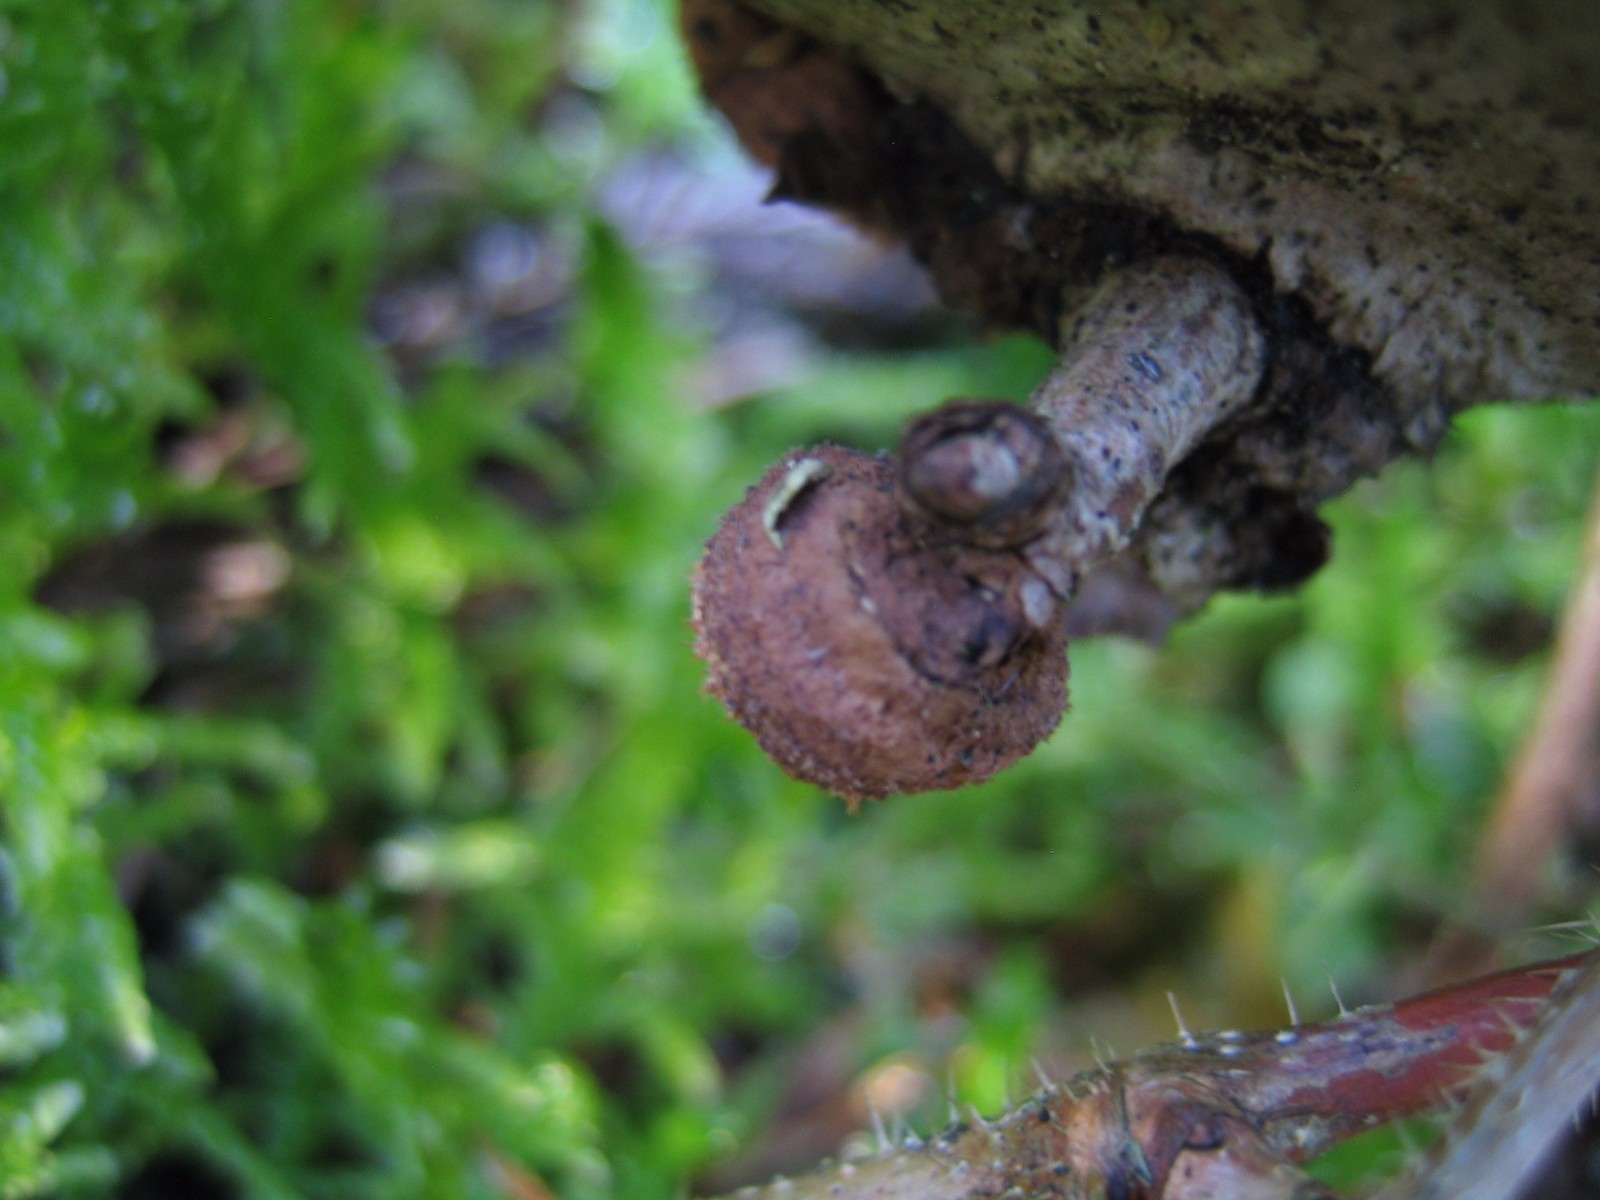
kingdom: Fungi
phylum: Basidiomycota
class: Agaricomycetes
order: Gloeophyllales
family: Gloeophyllaceae
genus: Gloeophyllum
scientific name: Gloeophyllum sepiarium
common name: fyrre-korkhat
